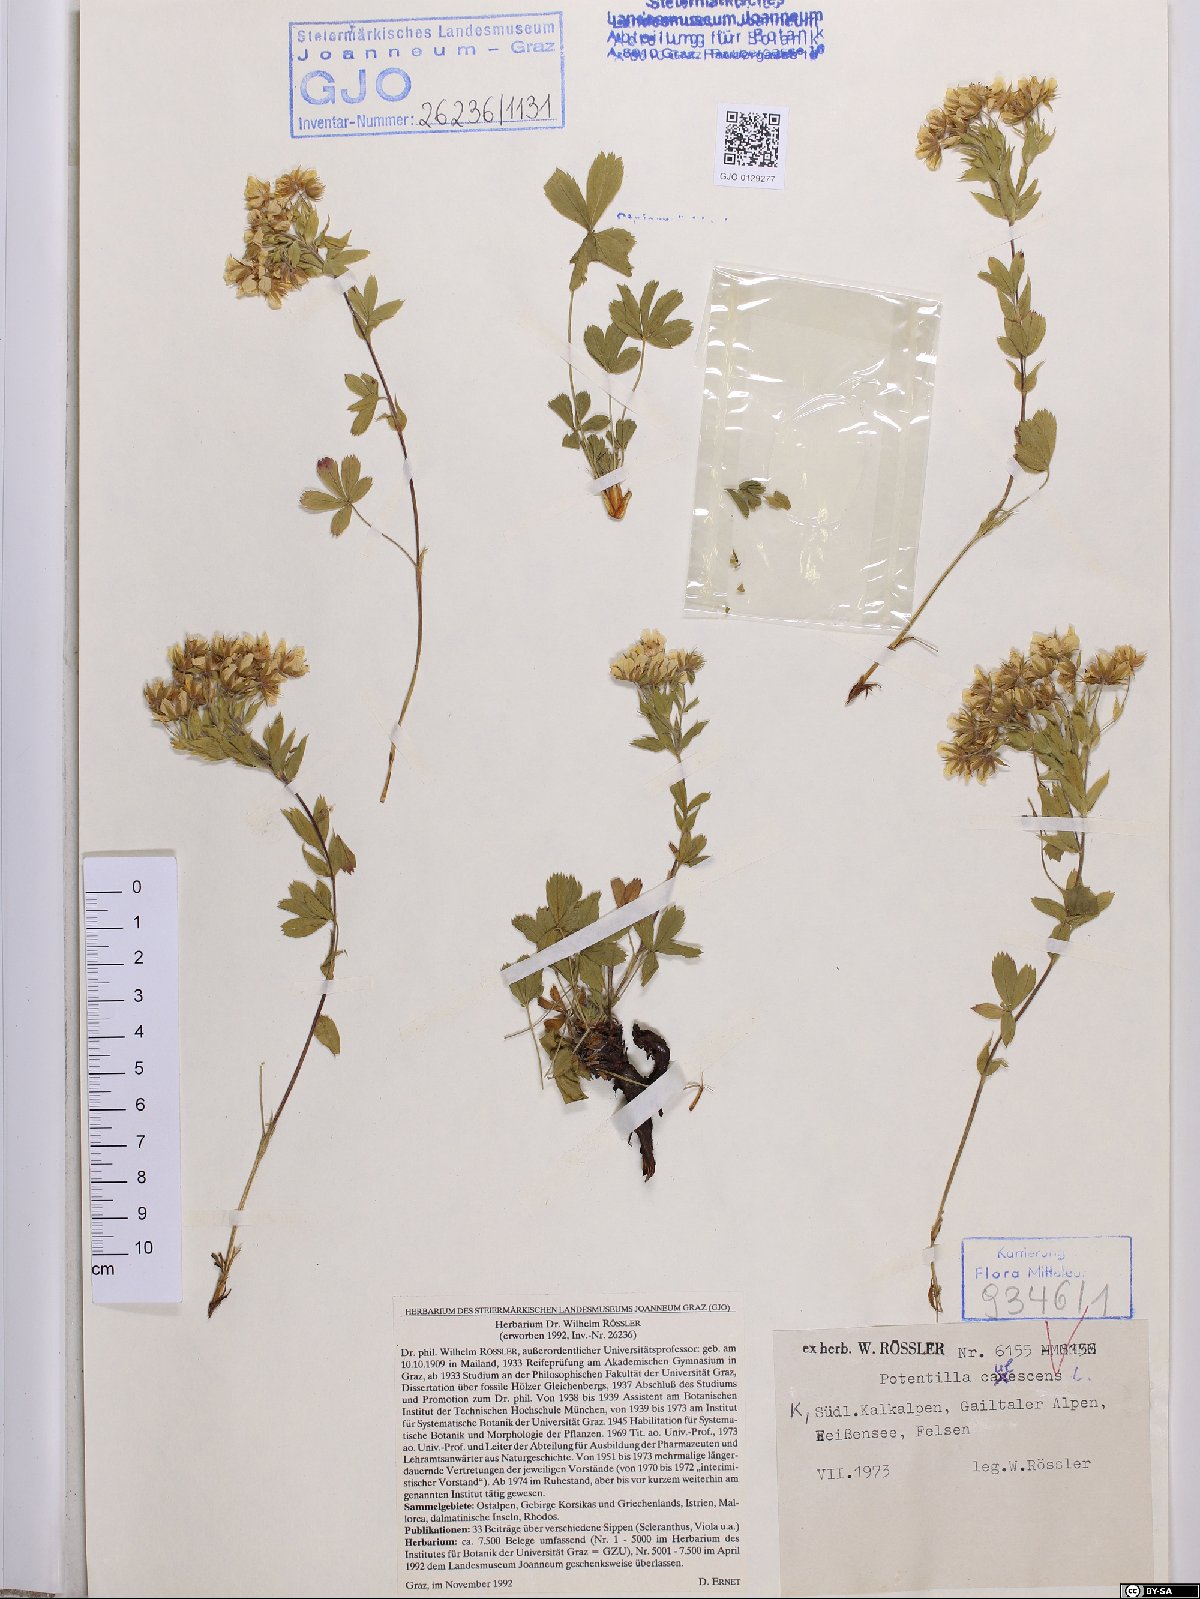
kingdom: Plantae
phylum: Tracheophyta
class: Magnoliopsida
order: Rosales
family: Rosaceae
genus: Potentilla
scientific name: Potentilla caulescens
